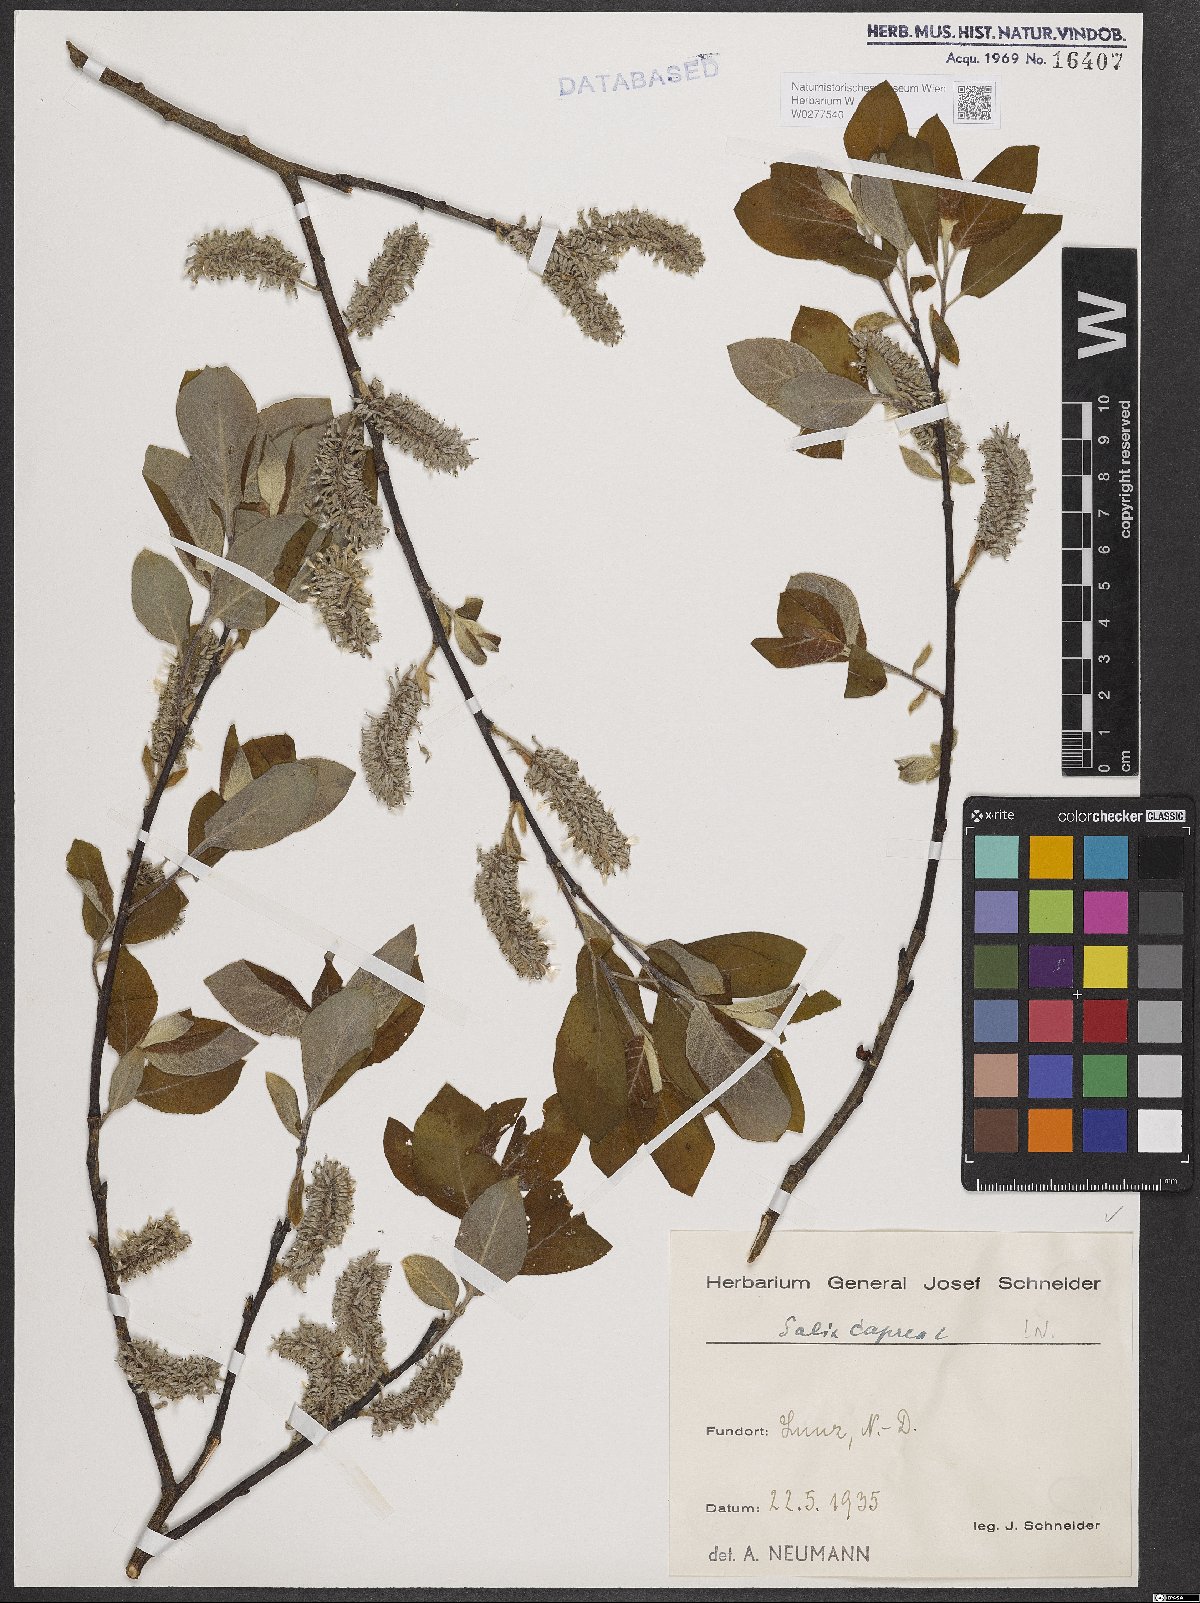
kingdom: Plantae
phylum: Tracheophyta
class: Magnoliopsida
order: Malpighiales
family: Salicaceae
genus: Salix
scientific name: Salix caprea
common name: Goat willow
